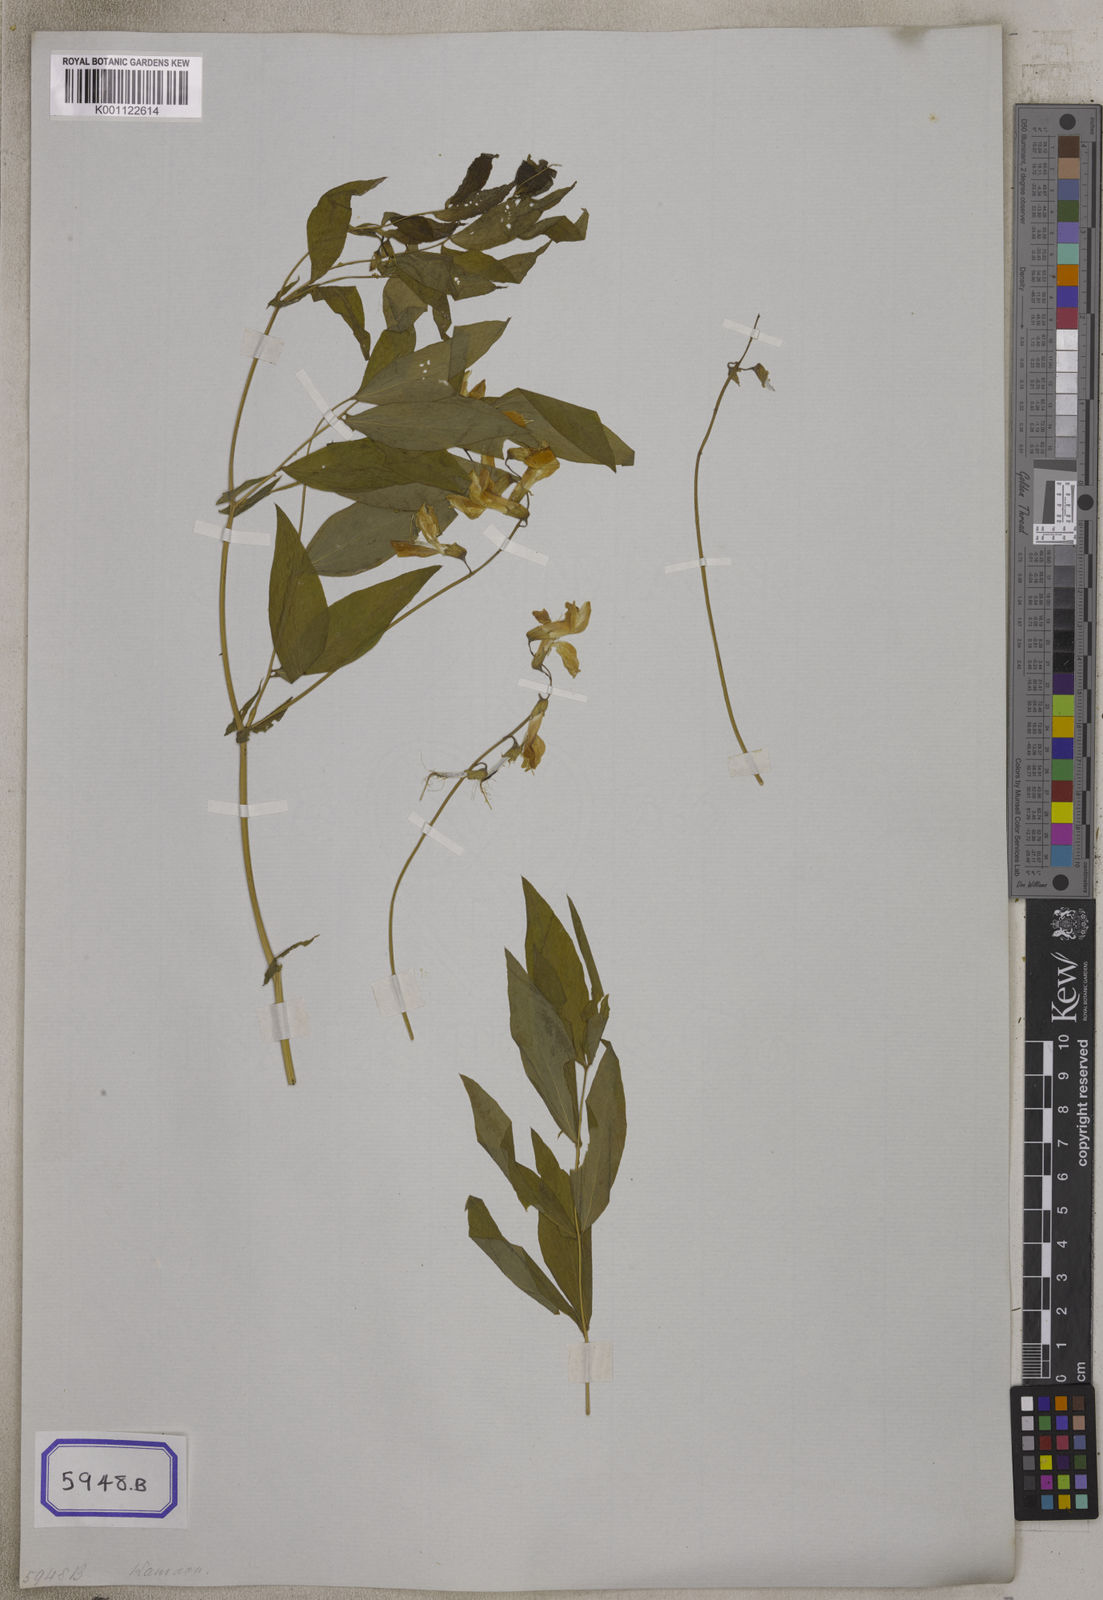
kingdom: Plantae
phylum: Tracheophyta
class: Magnoliopsida
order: Fabales
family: Fabaceae
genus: Lathyrus
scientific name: Lathyrus
